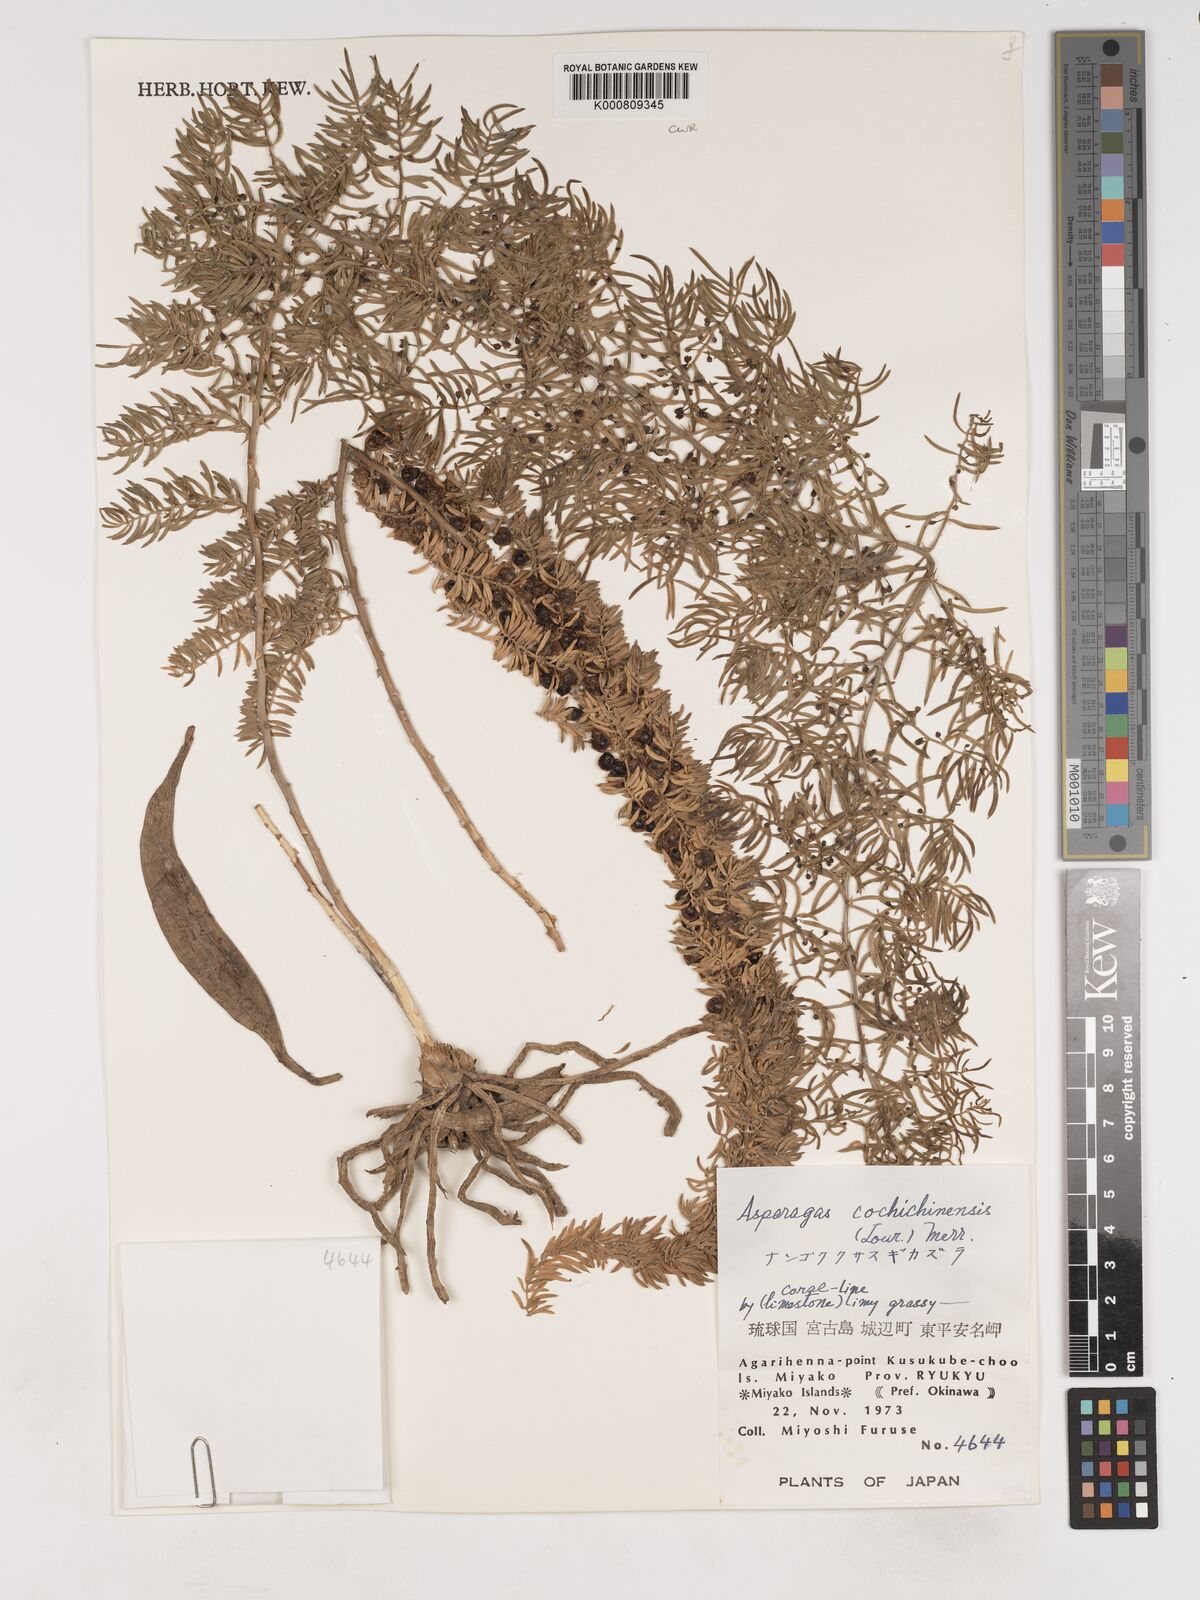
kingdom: Plantae
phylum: Tracheophyta
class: Liliopsida
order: Asparagales
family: Asparagaceae
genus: Asparagus
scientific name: Asparagus
